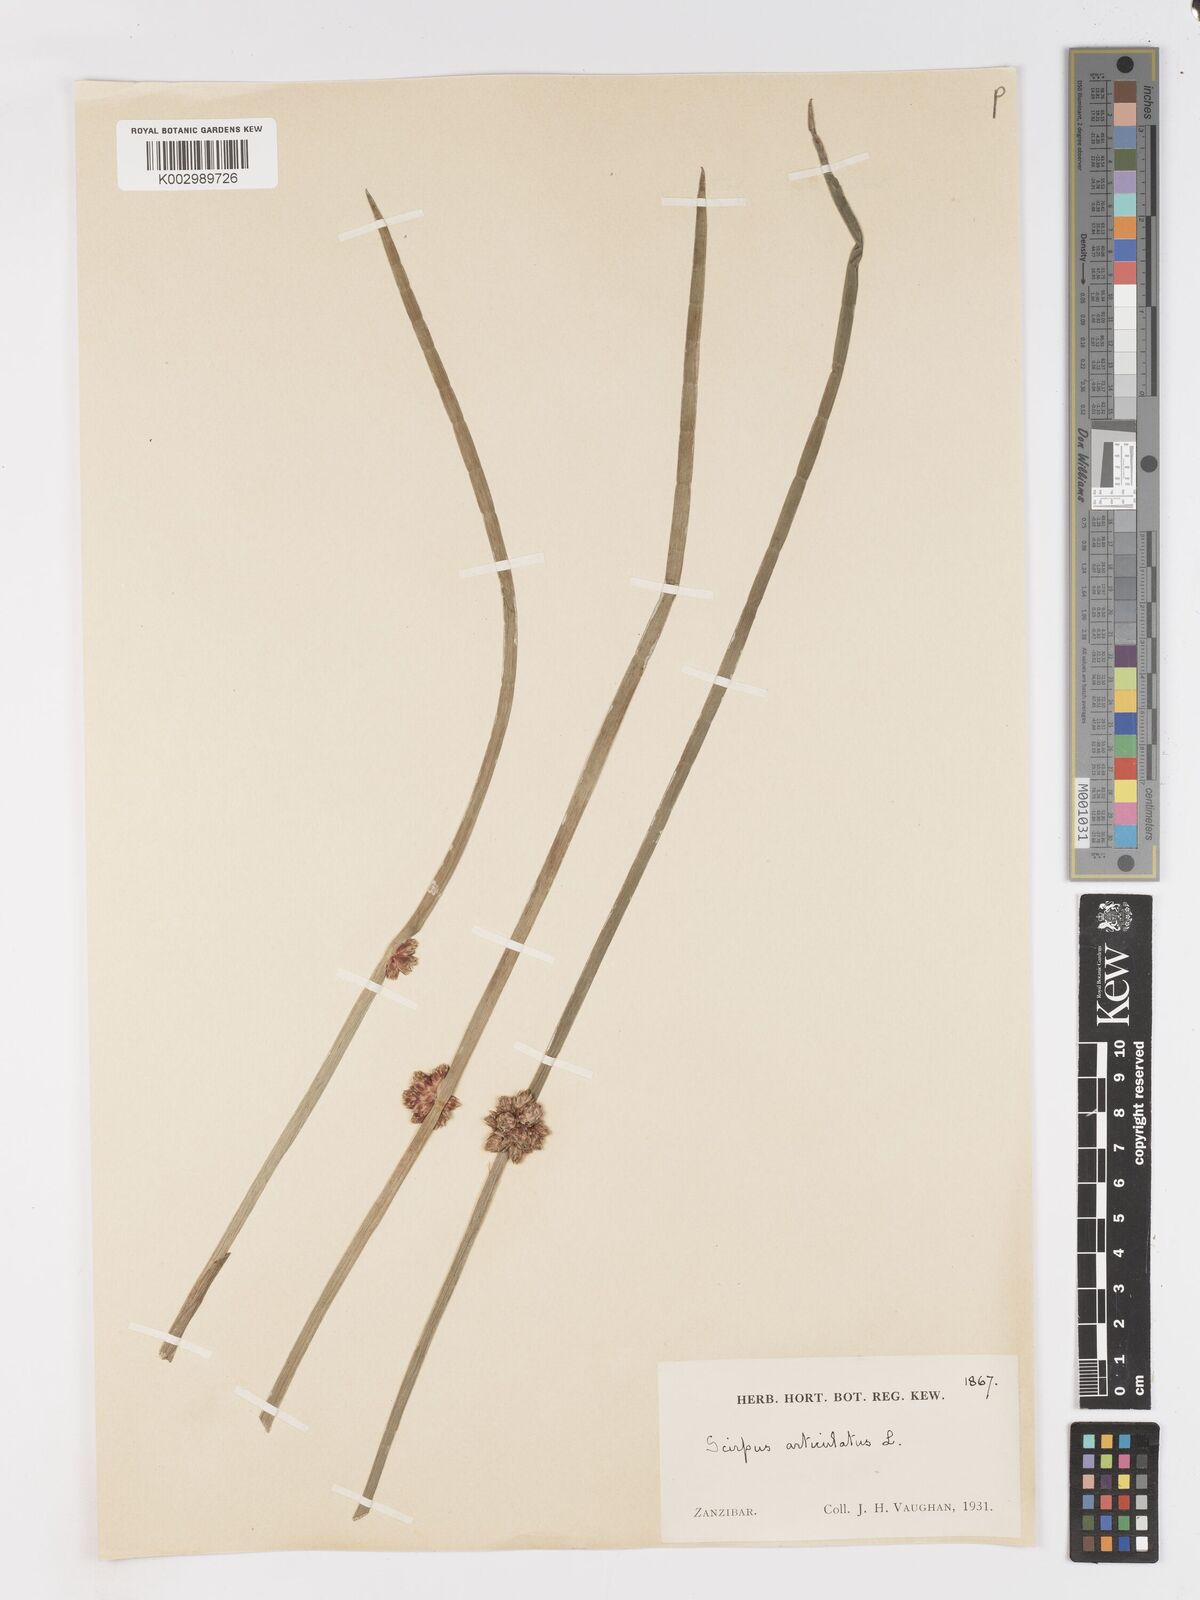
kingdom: Plantae
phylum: Tracheophyta
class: Liliopsida
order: Poales
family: Cyperaceae
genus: Schoenoplectiella
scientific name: Schoenoplectiella articulata
